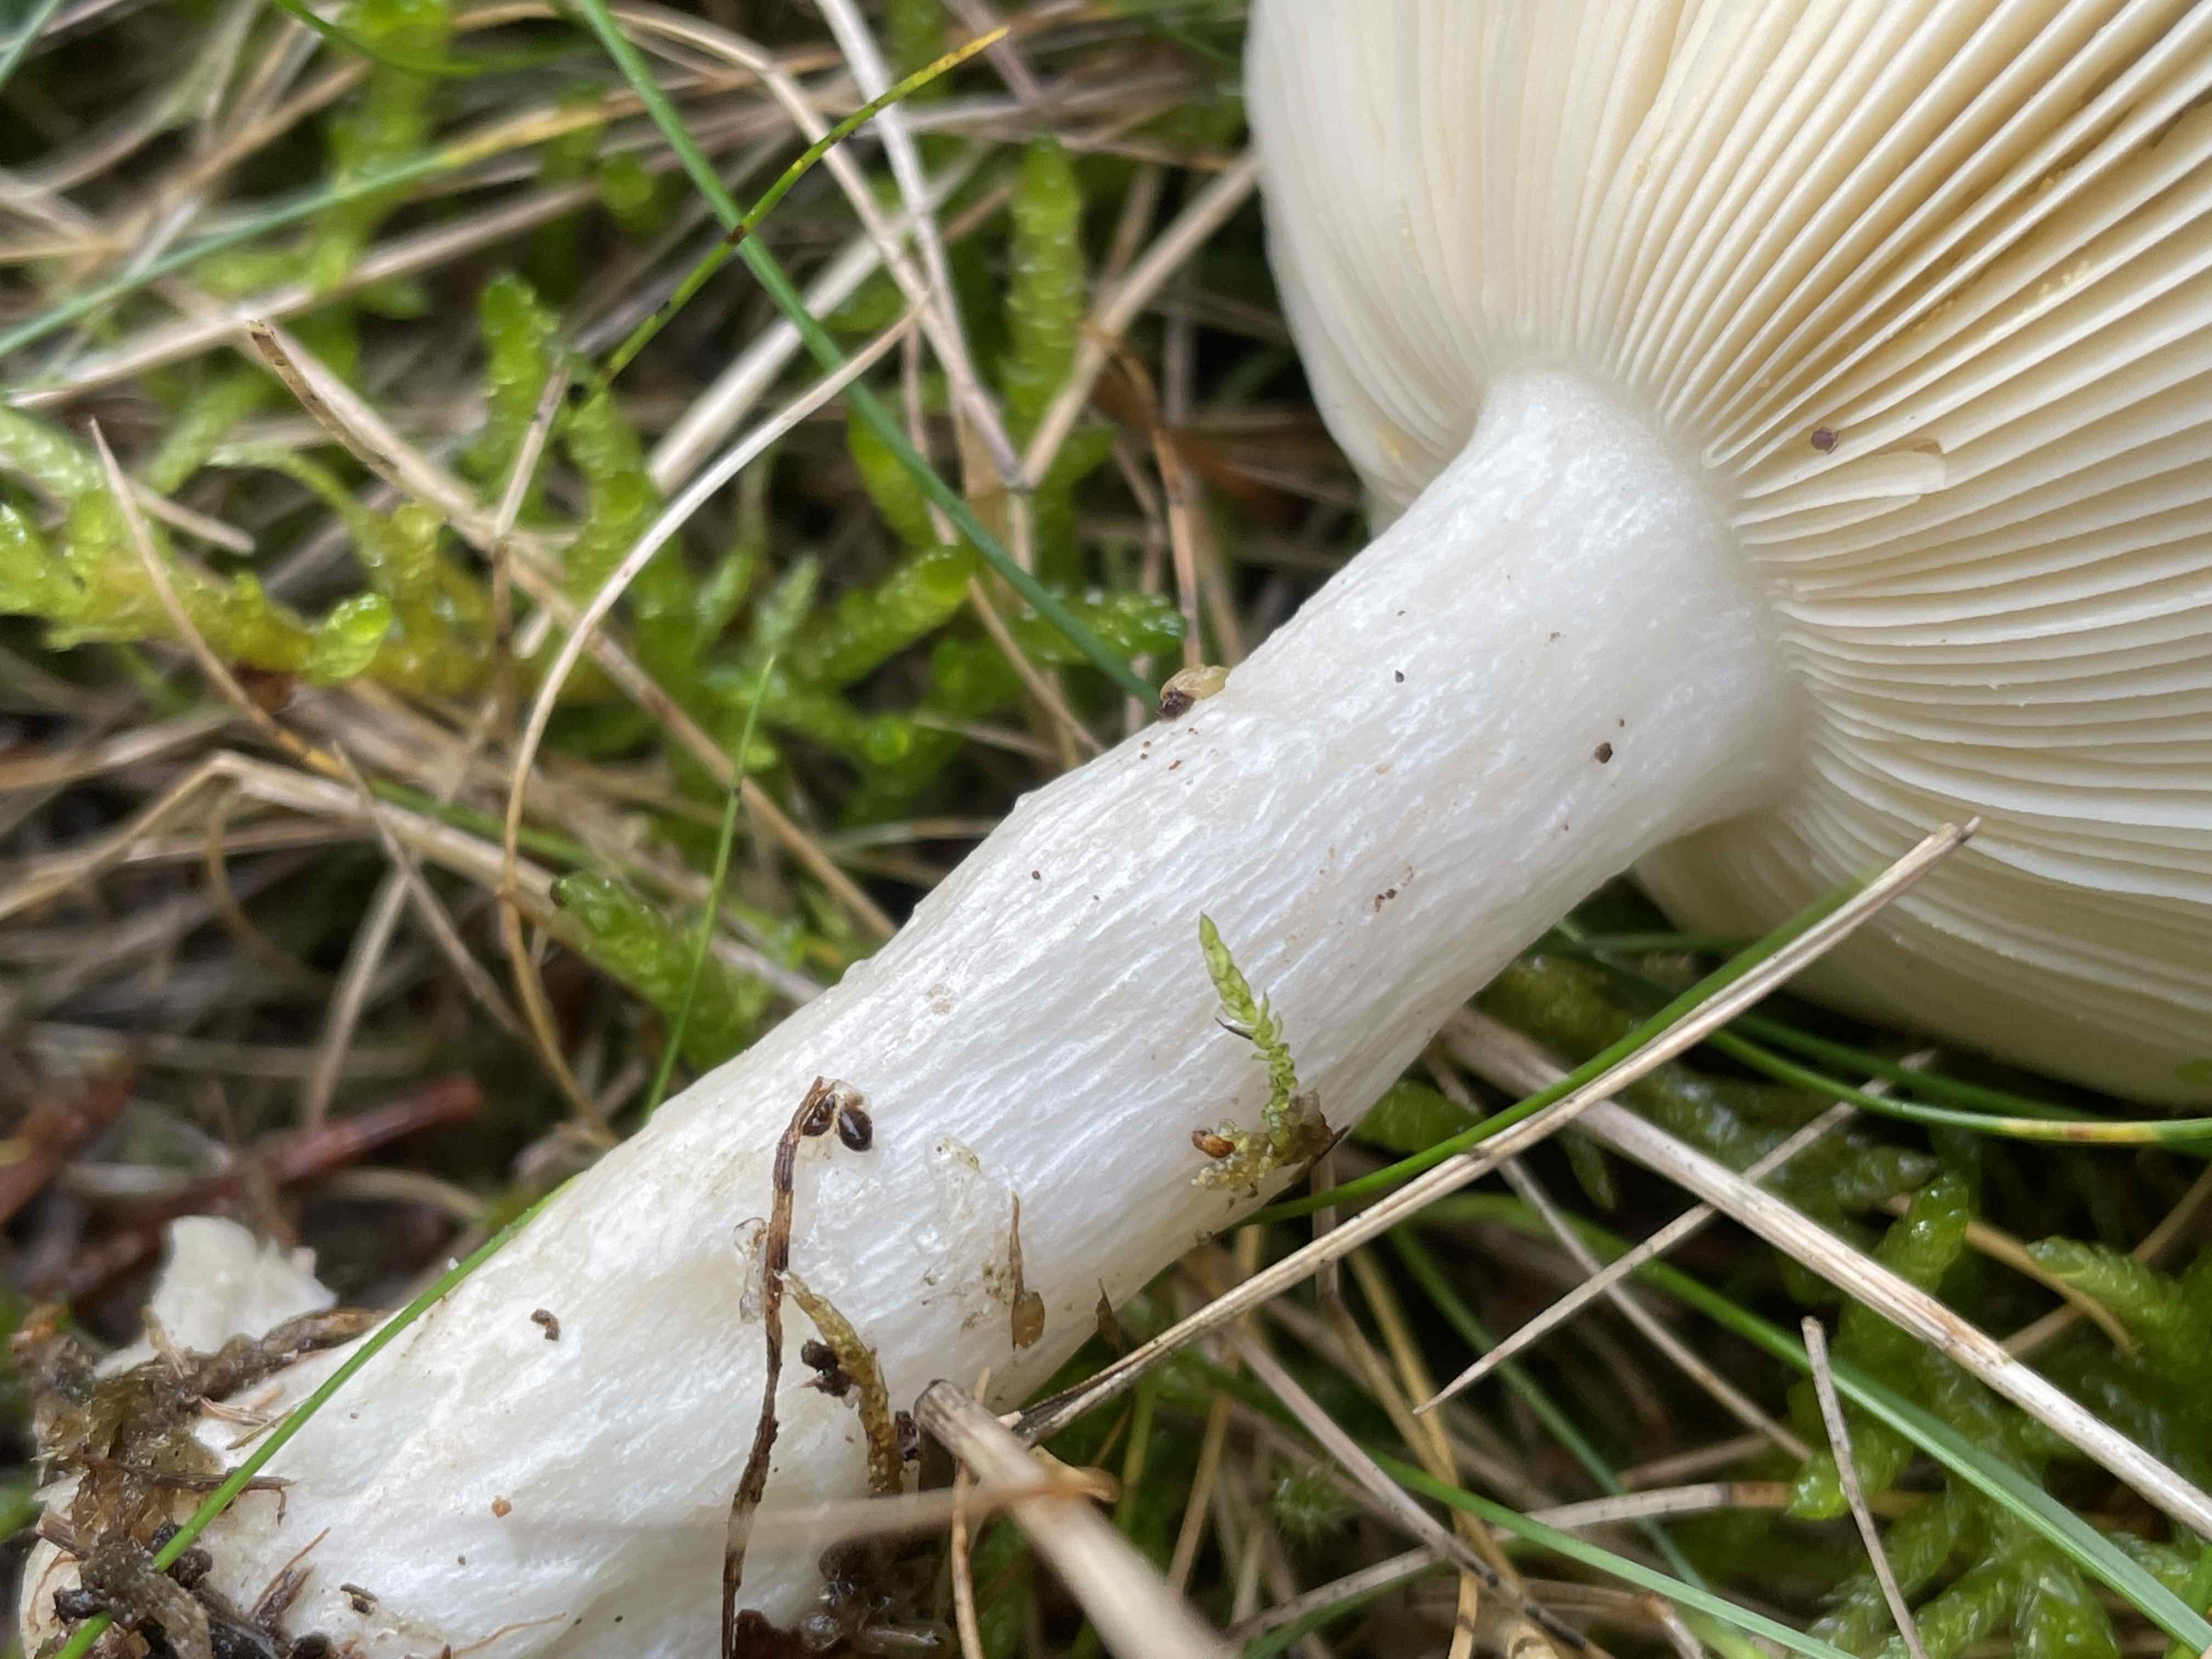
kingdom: Fungi
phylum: Basidiomycota
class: Agaricomycetes
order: Russulales
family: Russulaceae
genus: Russula
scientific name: Russula
